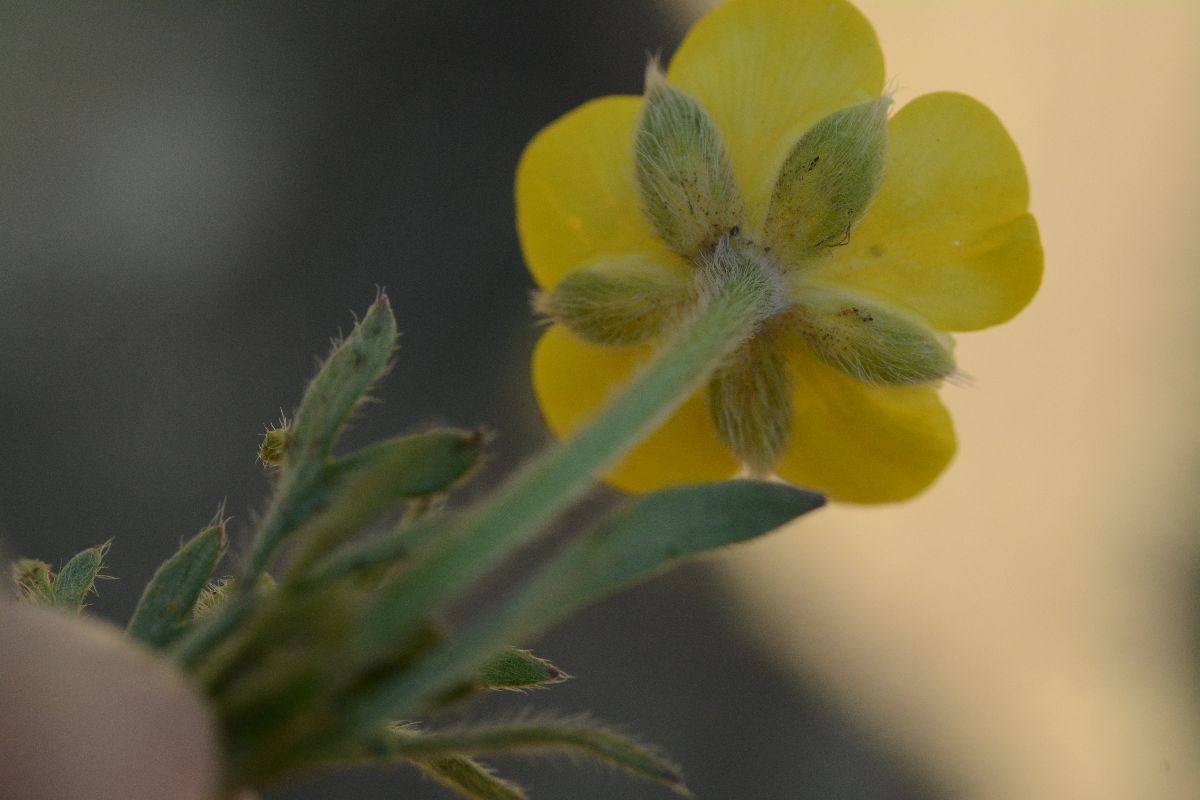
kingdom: Plantae
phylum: Tracheophyta
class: Magnoliopsida
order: Ranunculales
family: Ranunculaceae
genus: Ranunculus
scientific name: Ranunculus paludosus
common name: Лютиковые
